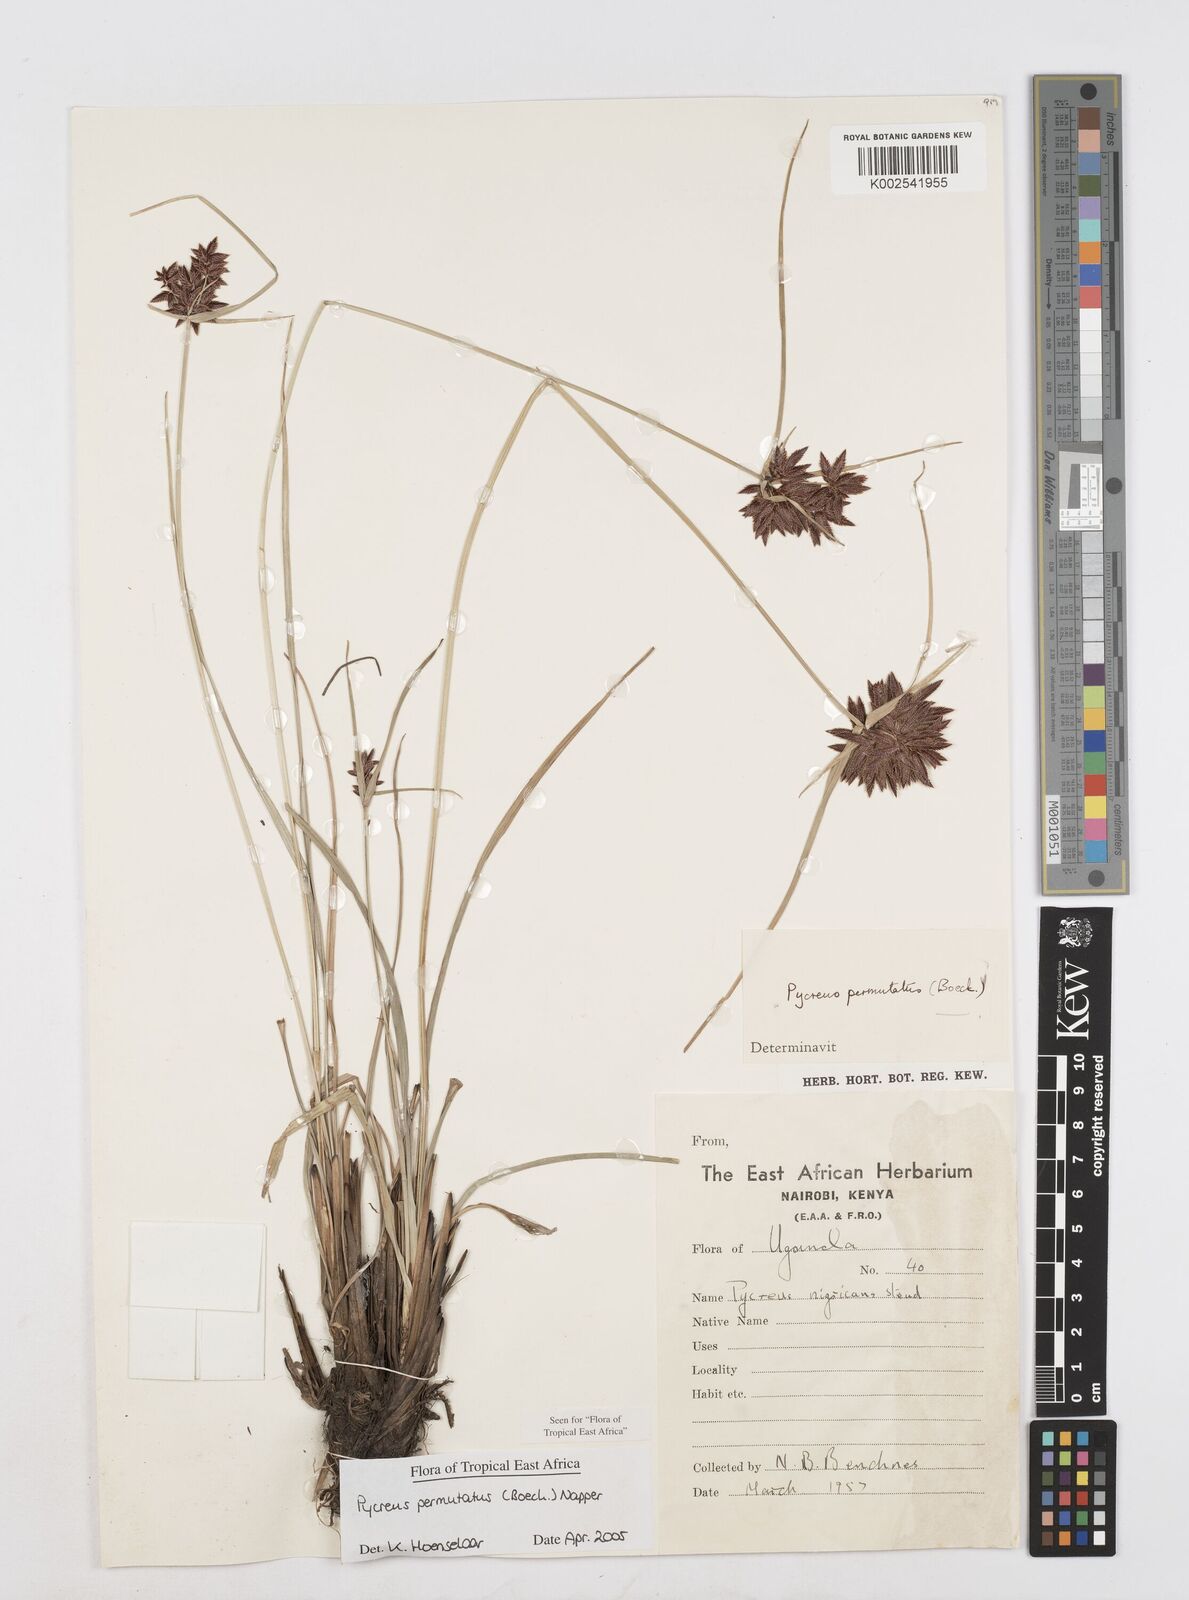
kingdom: Plantae
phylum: Tracheophyta
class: Liliopsida
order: Poales
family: Cyperaceae
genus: Cyperus
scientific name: Cyperus nigricans
